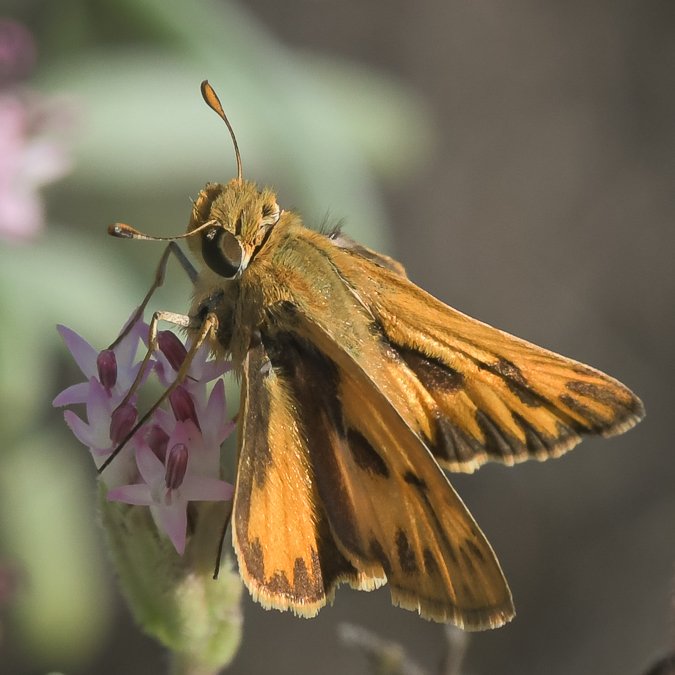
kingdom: Animalia
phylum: Arthropoda
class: Insecta
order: Lepidoptera
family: Hesperiidae
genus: Hylephila
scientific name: Hylephila phyleus
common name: Fiery Skipper
